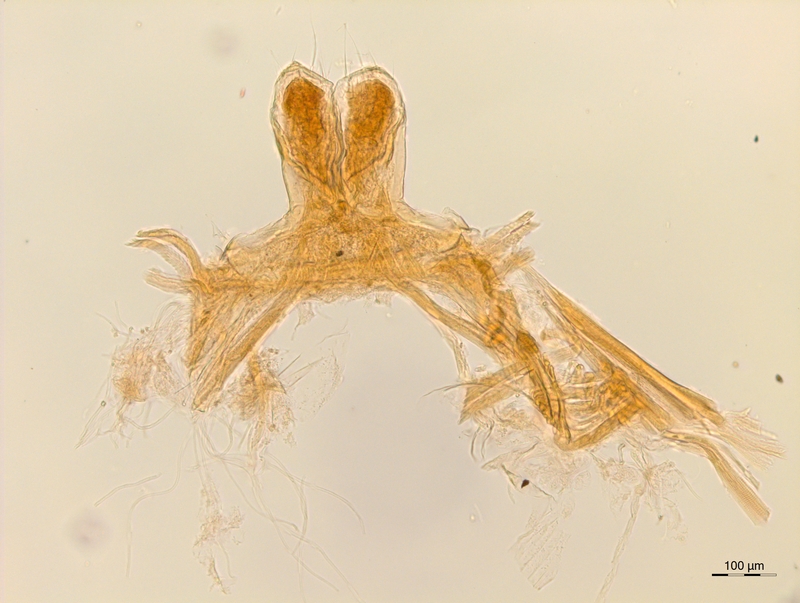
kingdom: Animalia
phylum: Arthropoda
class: Diplopoda
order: Chordeumatida
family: Attemsiidae
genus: Attemsia
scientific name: Attemsia falcifera
